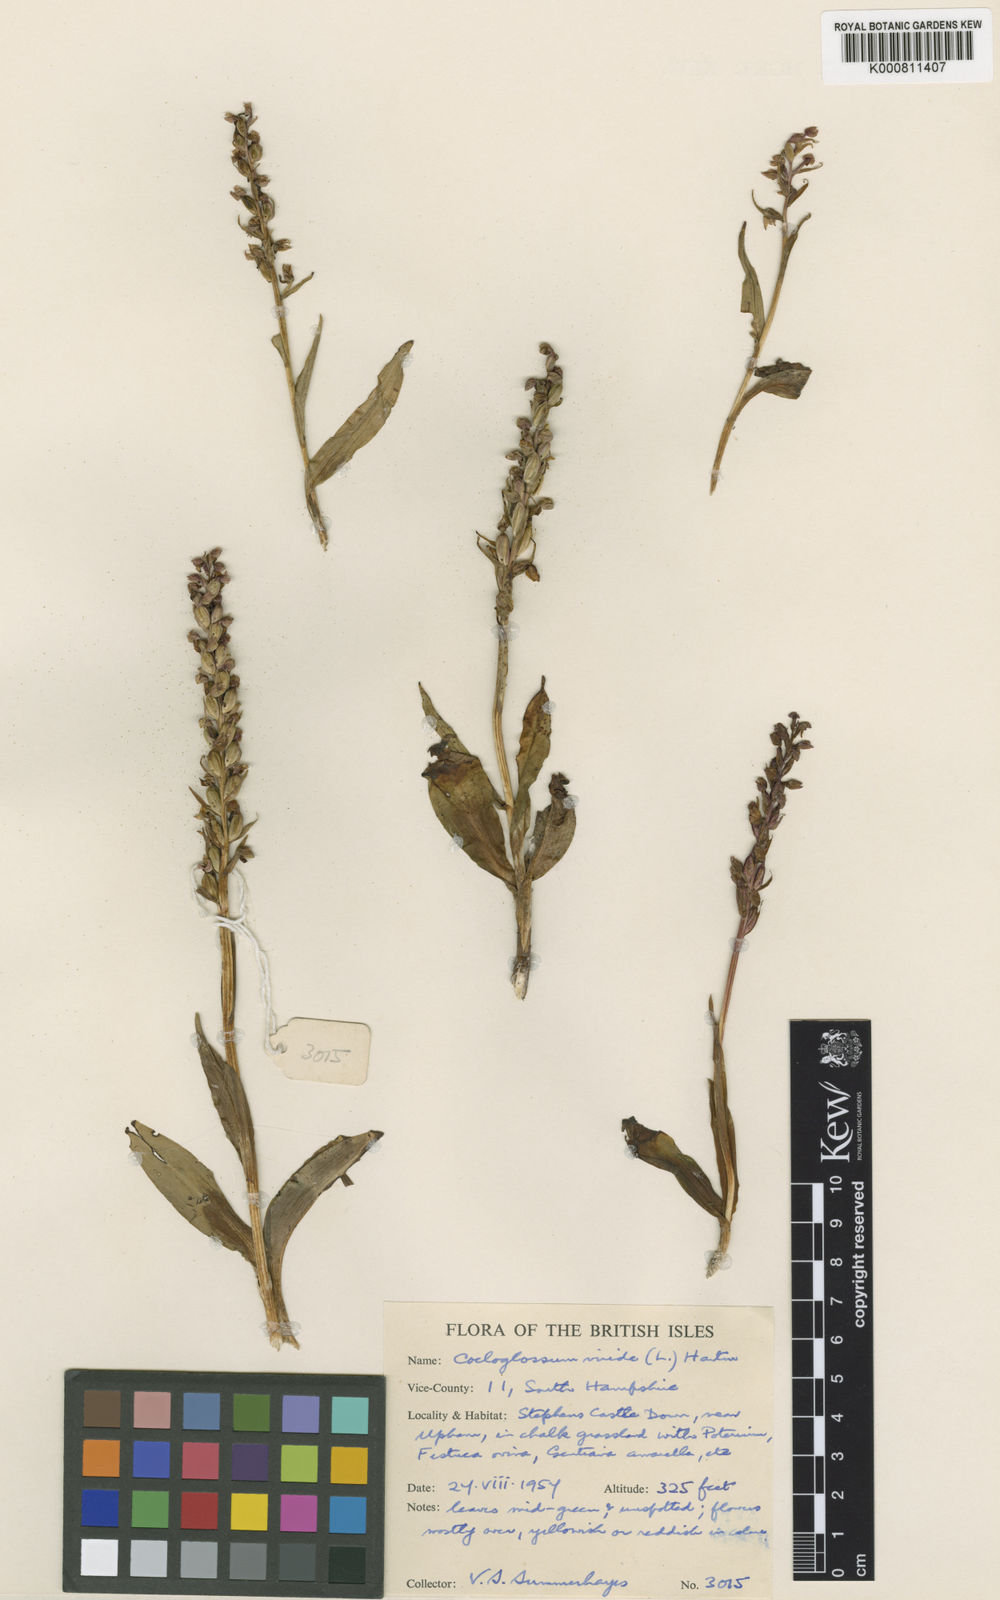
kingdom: Plantae
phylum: Tracheophyta
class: Liliopsida
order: Asparagales
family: Orchidaceae
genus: Dactylorhiza
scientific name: Dactylorhiza viridis
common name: Longbract frog orchid
